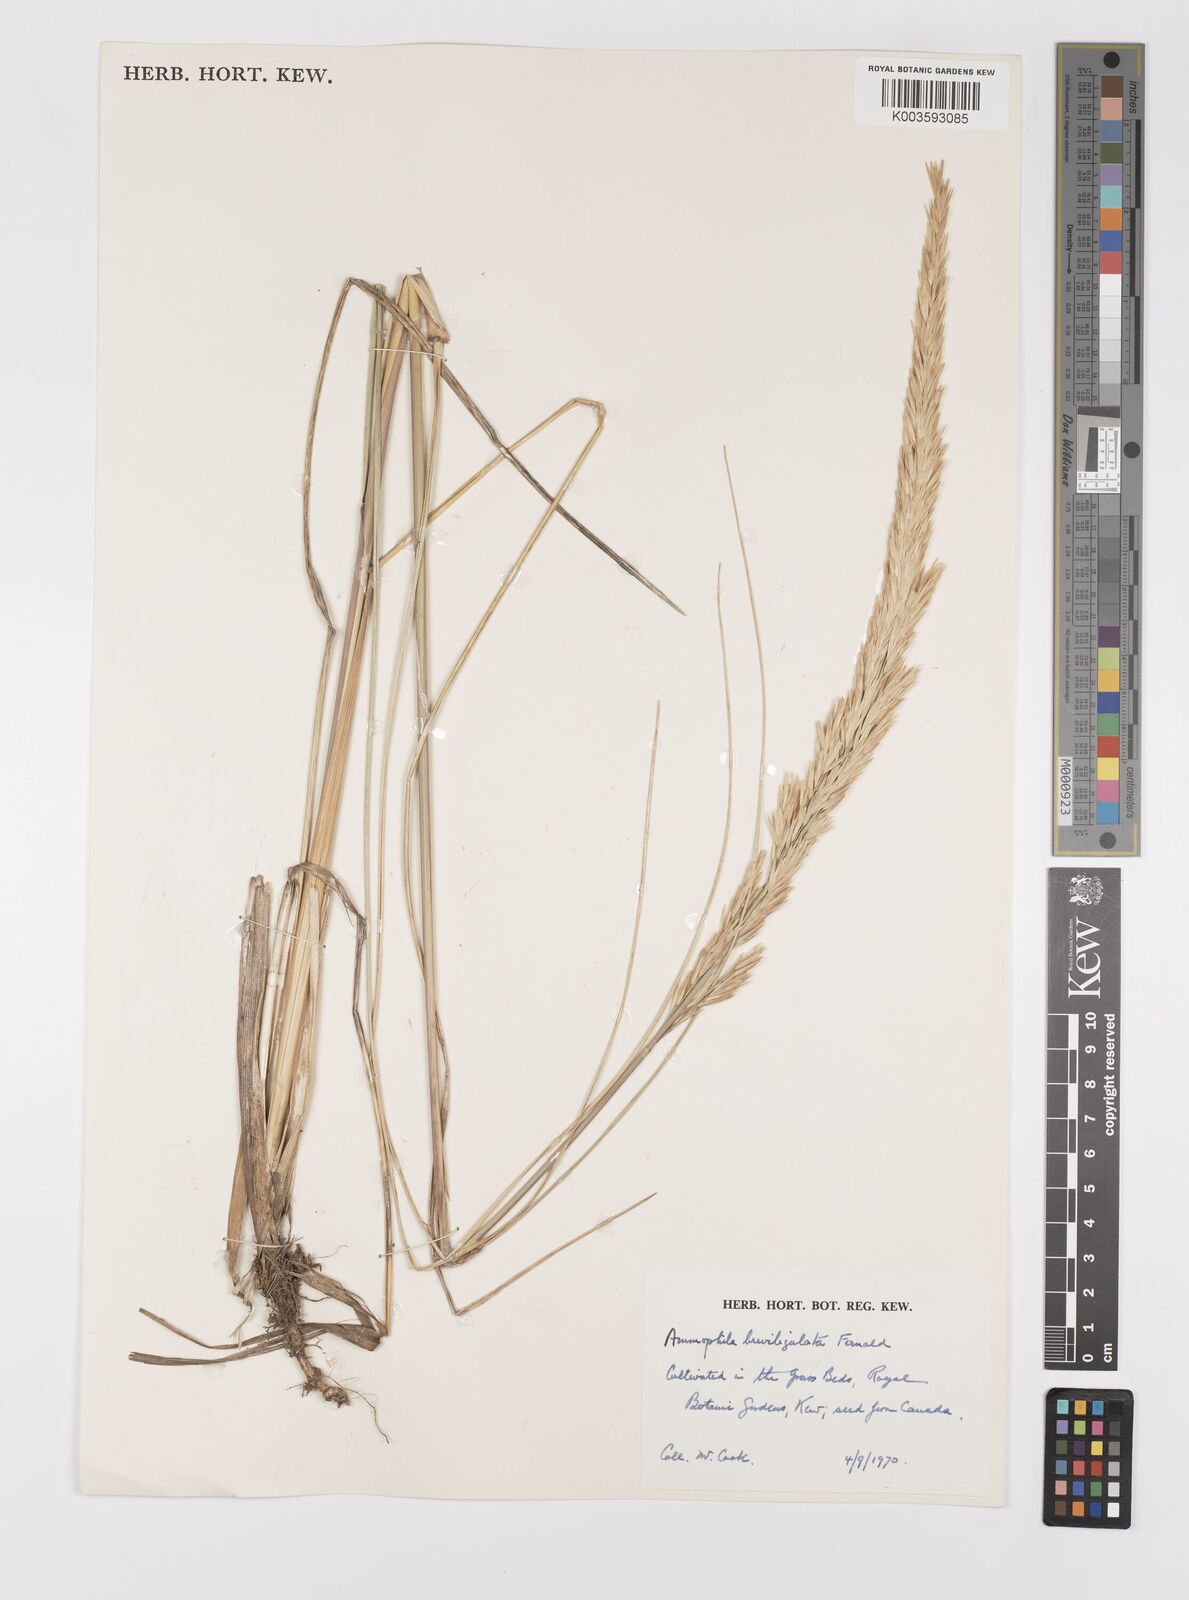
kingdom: Plantae
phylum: Tracheophyta
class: Liliopsida
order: Poales
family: Poaceae
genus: Calamagrostis
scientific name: Calamagrostis breviligulata
